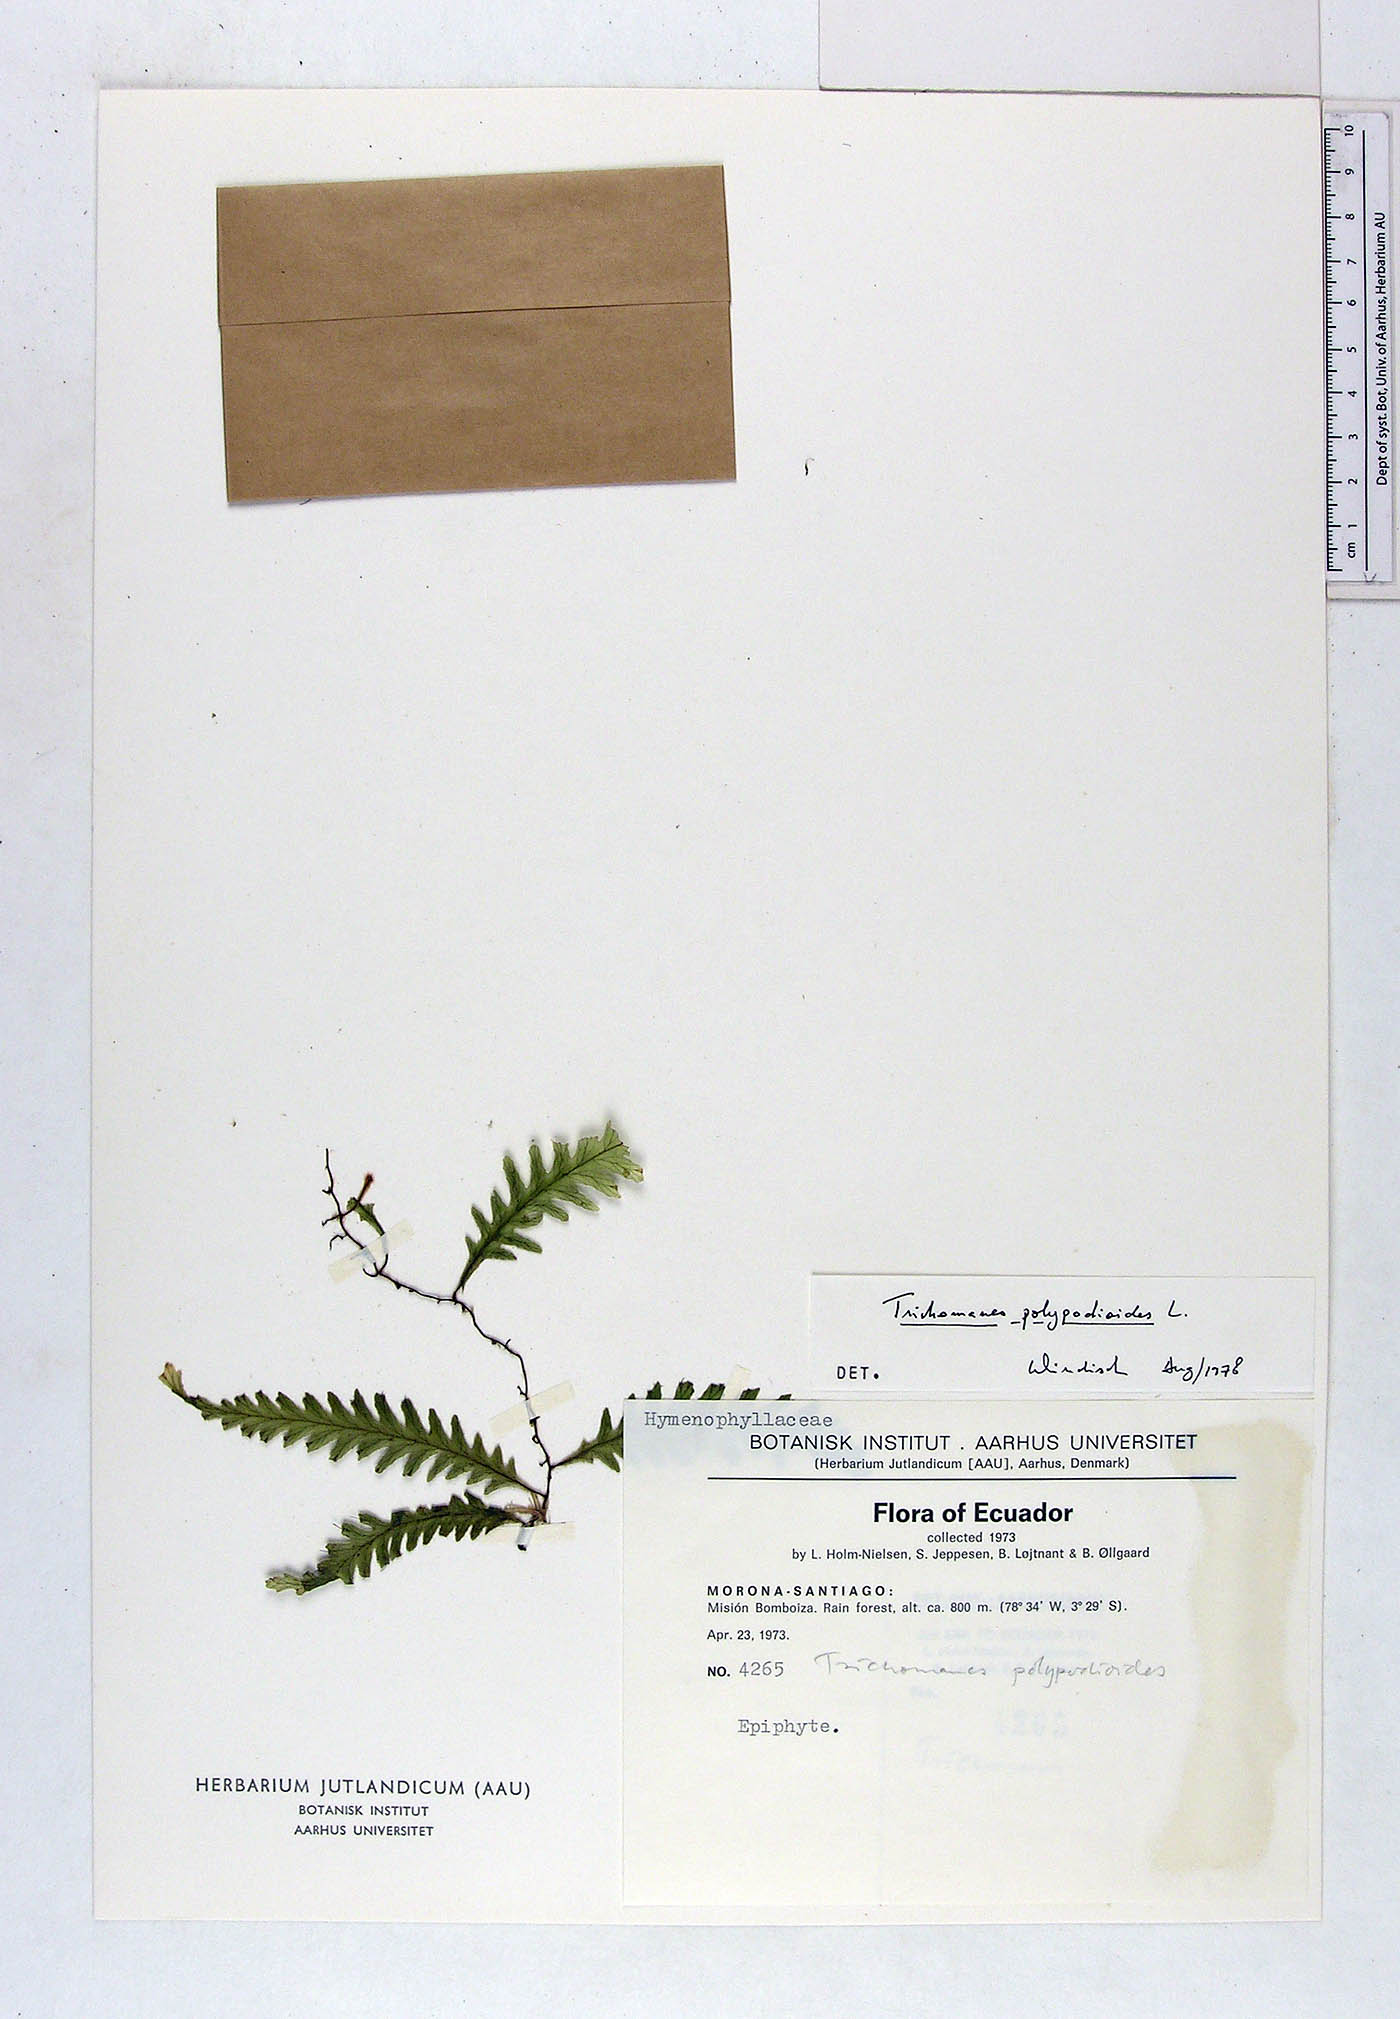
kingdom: Plantae
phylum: Tracheophyta
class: Polypodiopsida
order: Hymenophyllales
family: Hymenophyllaceae
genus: Trichomanes
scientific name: Trichomanes polypodioides
